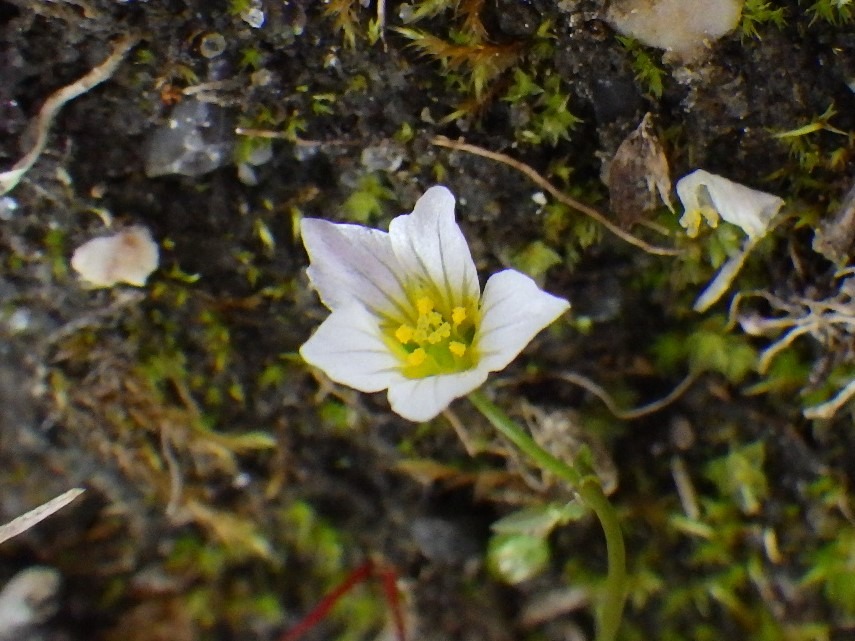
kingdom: Plantae
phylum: Tracheophyta
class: Magnoliopsida
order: Malpighiales
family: Linaceae
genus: Linum
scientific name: Linum catharticum
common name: Vild hør
